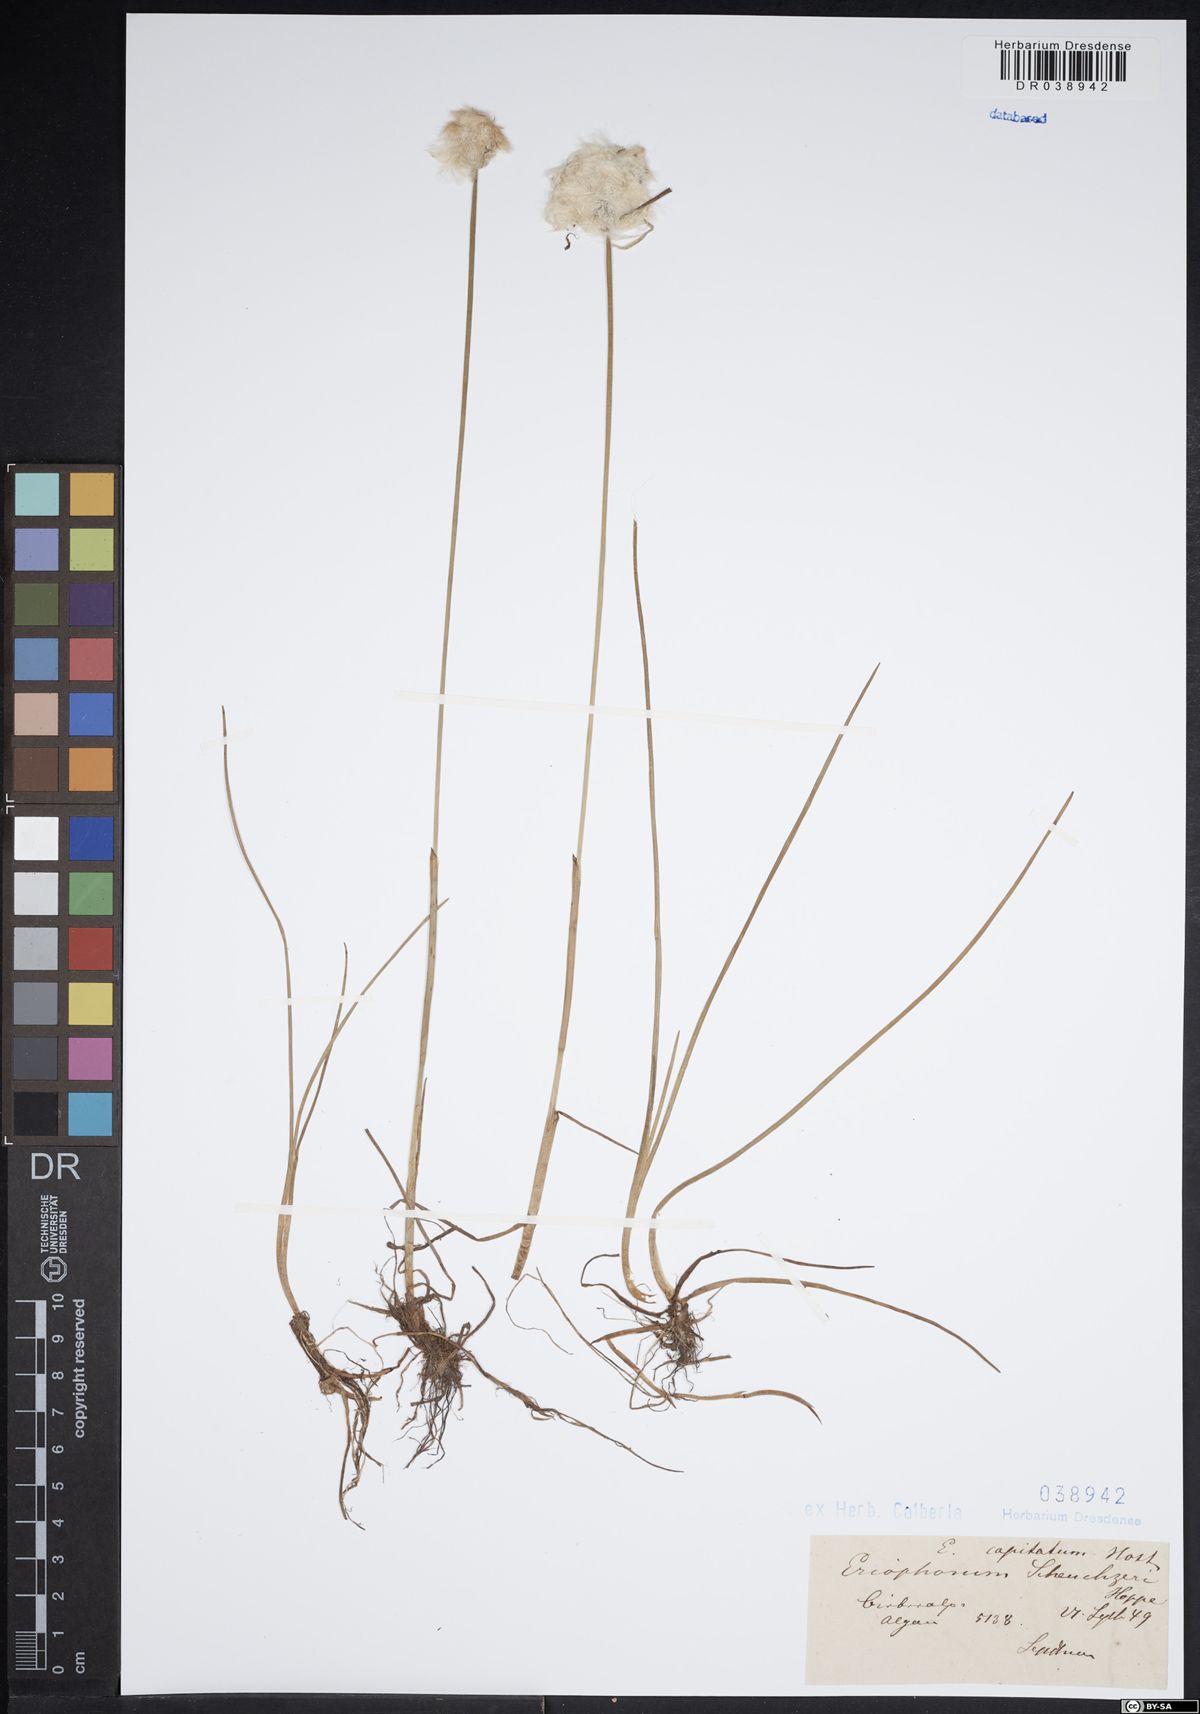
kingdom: Plantae
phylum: Tracheophyta
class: Liliopsida
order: Poales
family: Cyperaceae
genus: Eriophorum
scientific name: Eriophorum scheuchzeri
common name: Scheuchzer's cottongrass
